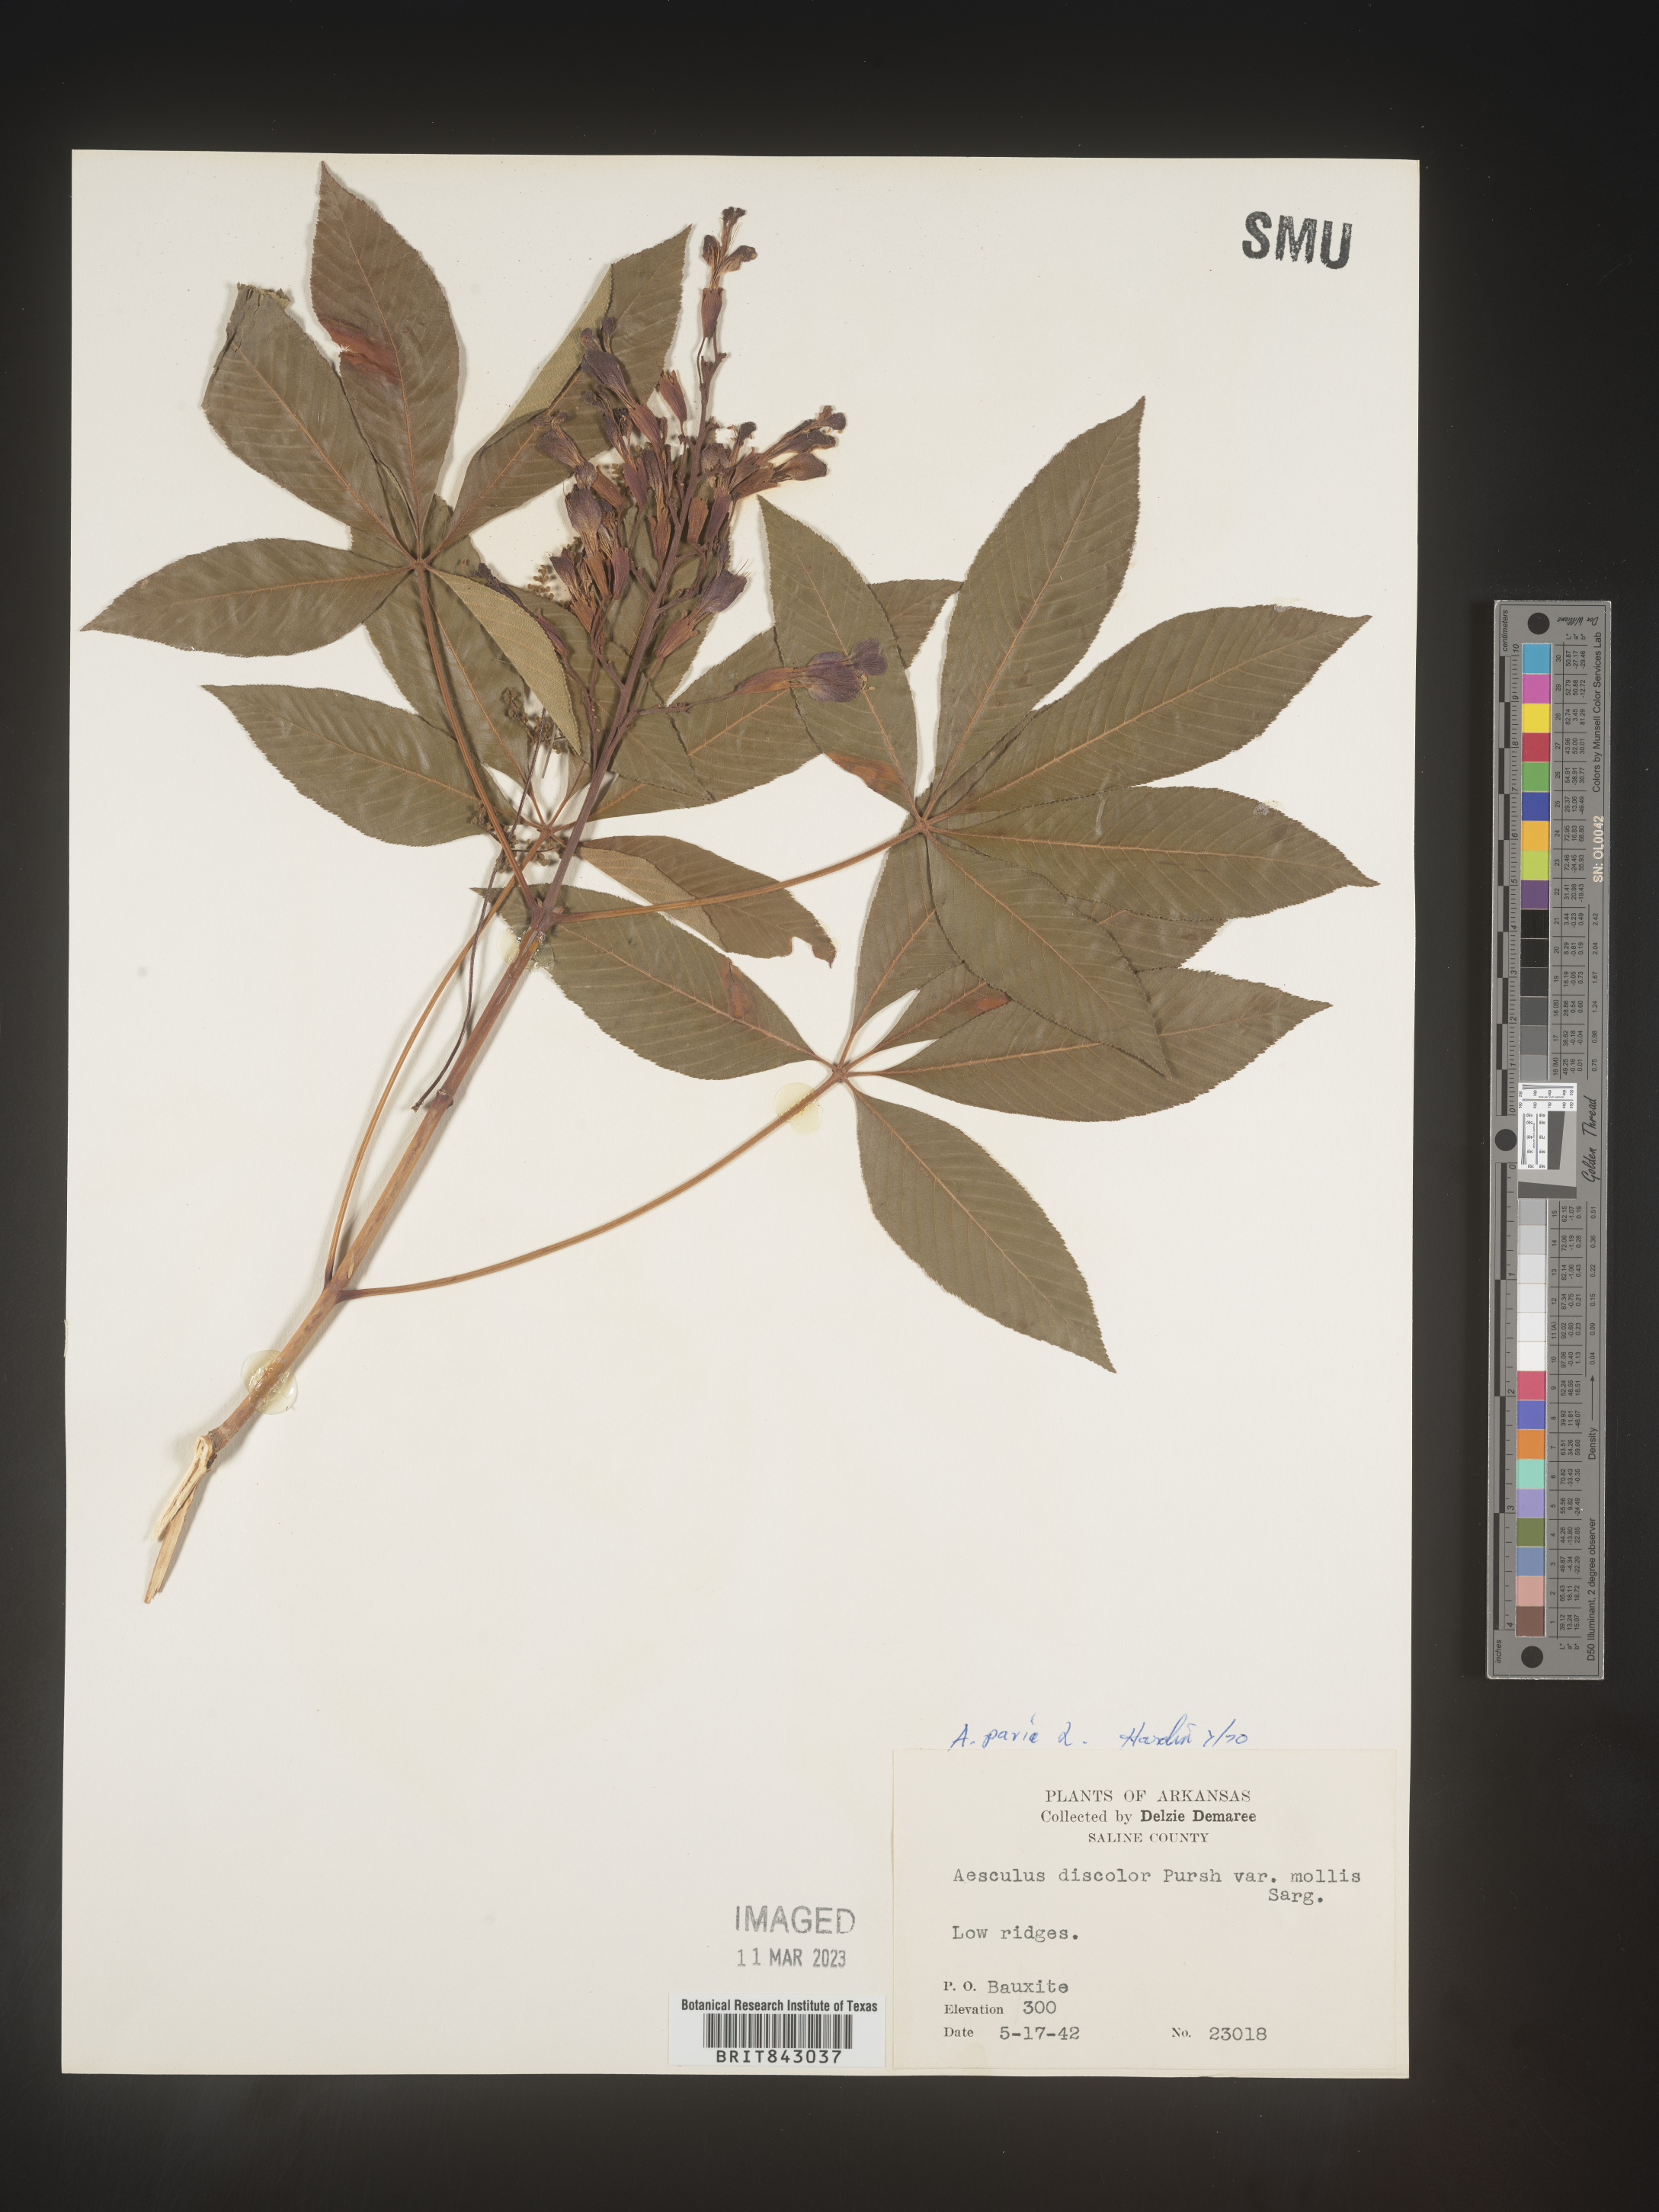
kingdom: Plantae
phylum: Tracheophyta
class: Magnoliopsida
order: Sapindales
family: Sapindaceae
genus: Aesculus
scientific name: Aesculus pavia
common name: Red buckeye
